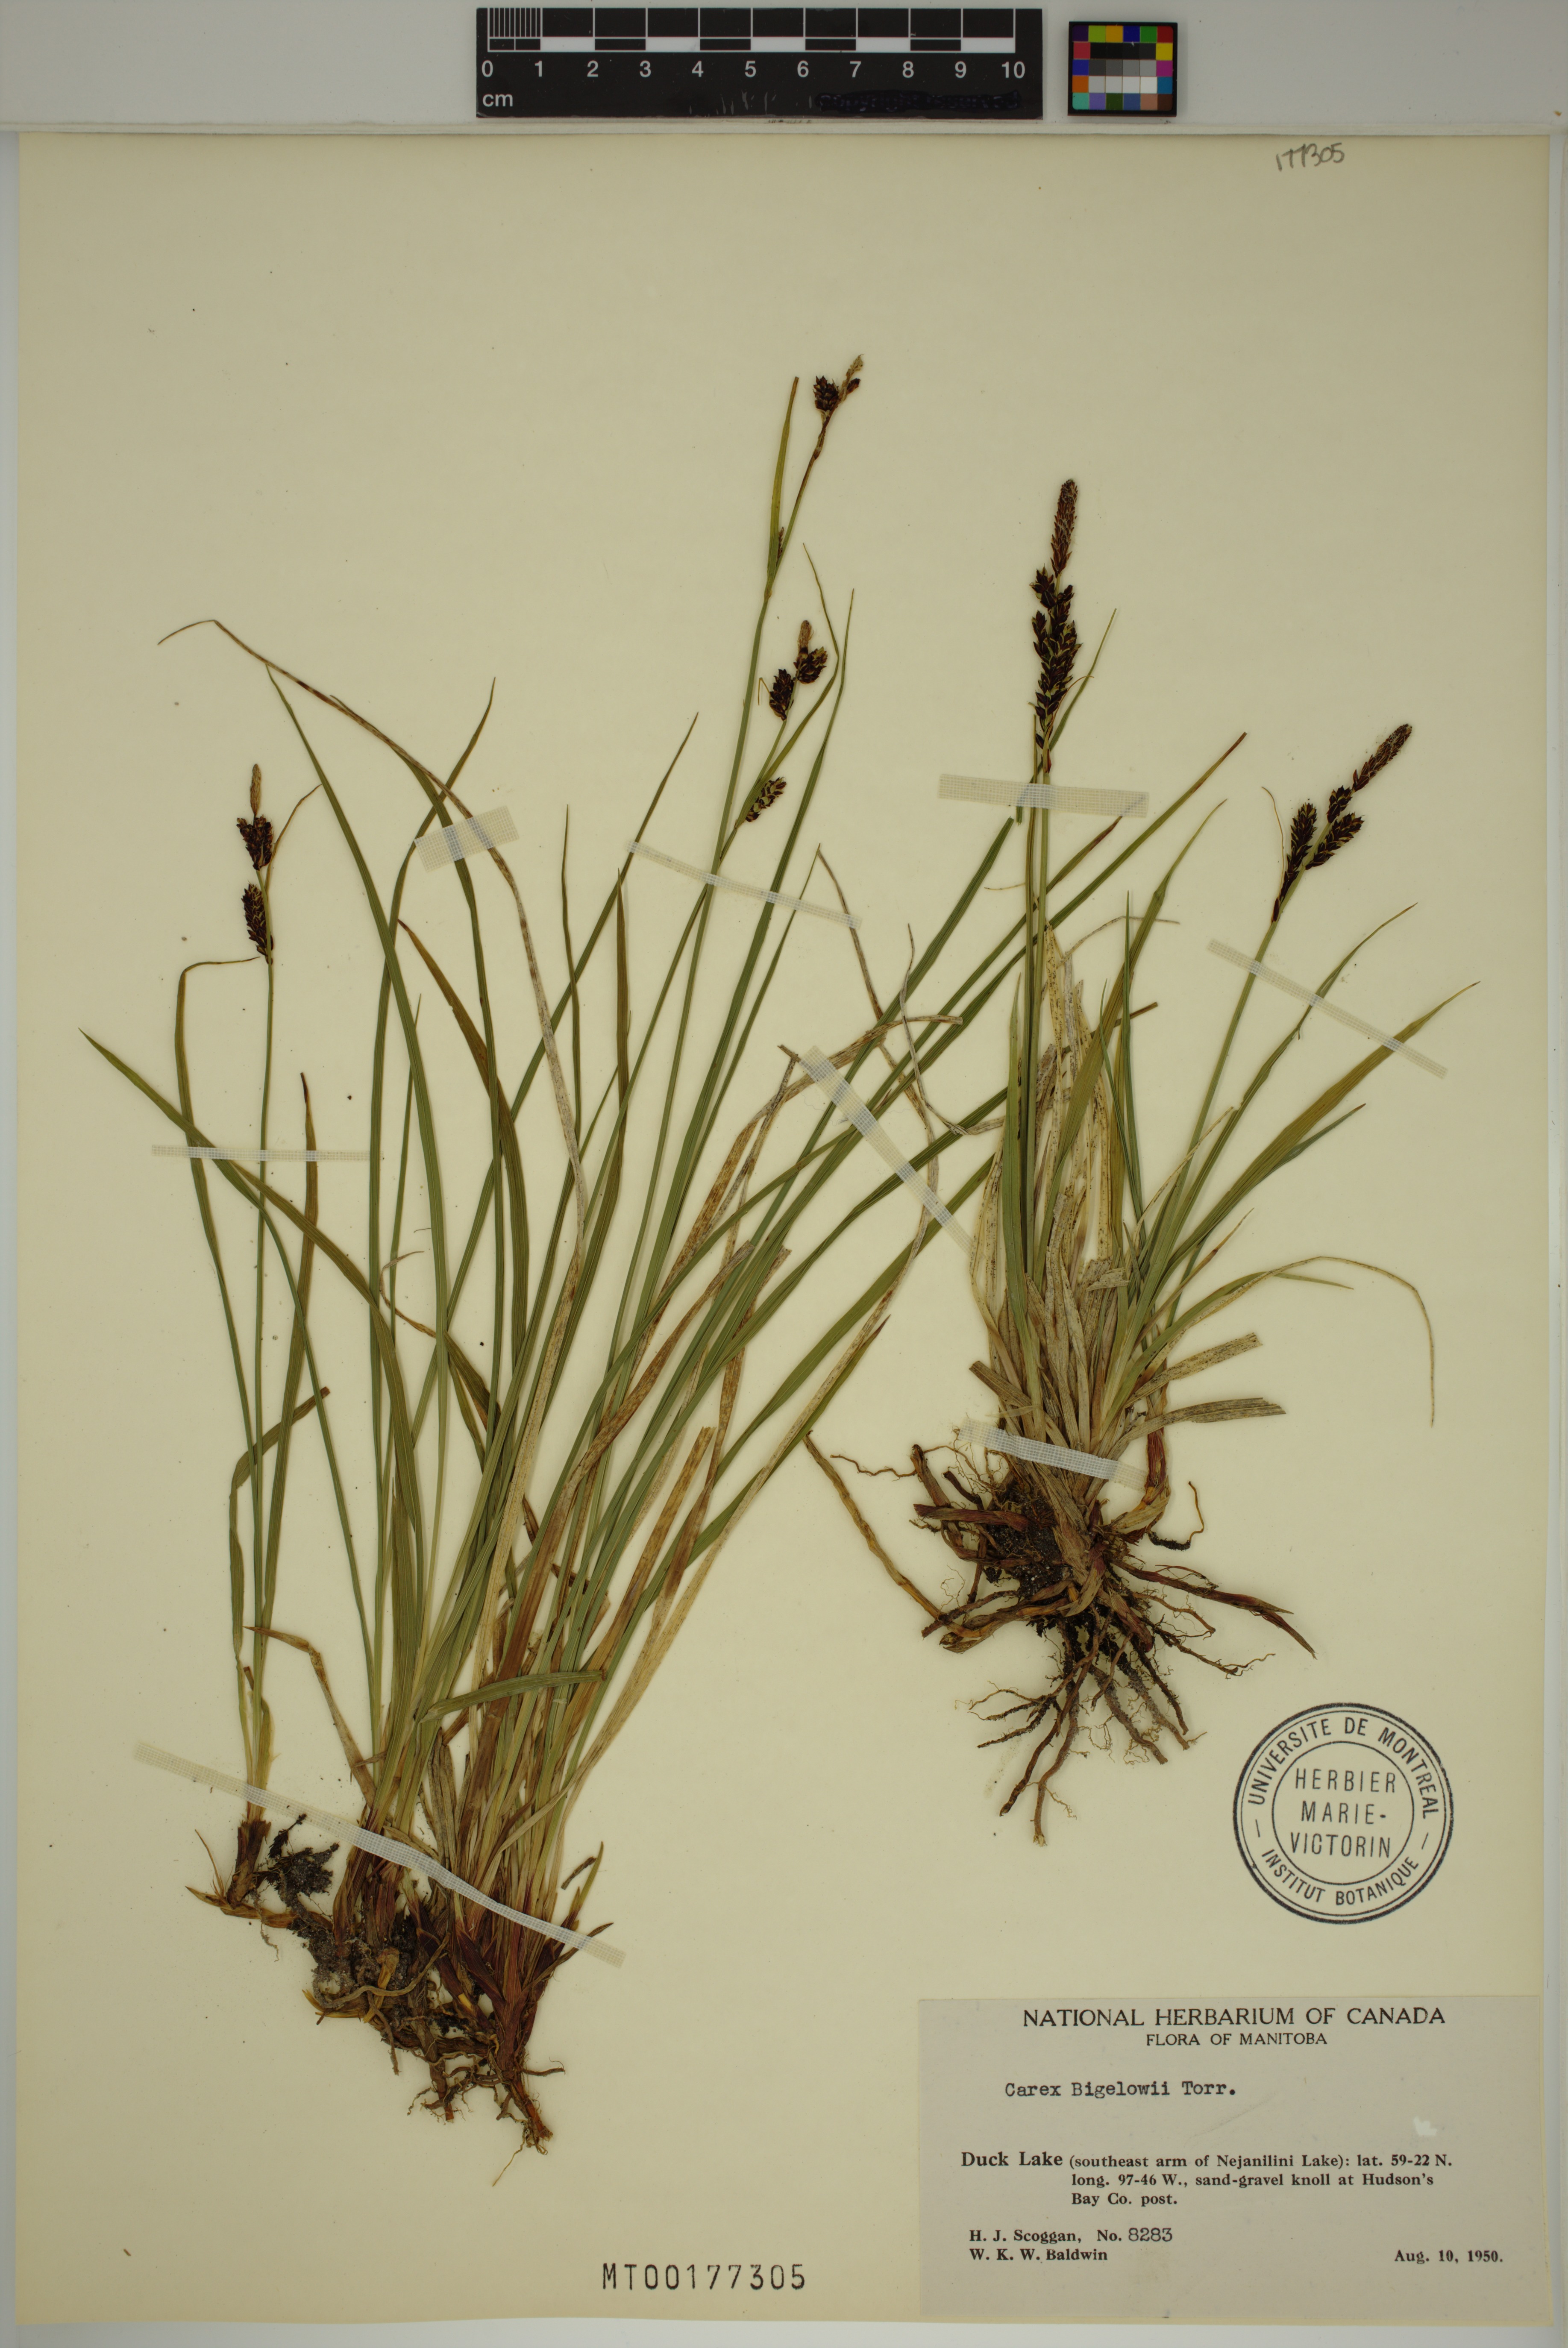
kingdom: Plantae
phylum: Tracheophyta
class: Liliopsida
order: Poales
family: Cyperaceae
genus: Carex
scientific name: Carex bigelowii
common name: Stiff sedge
